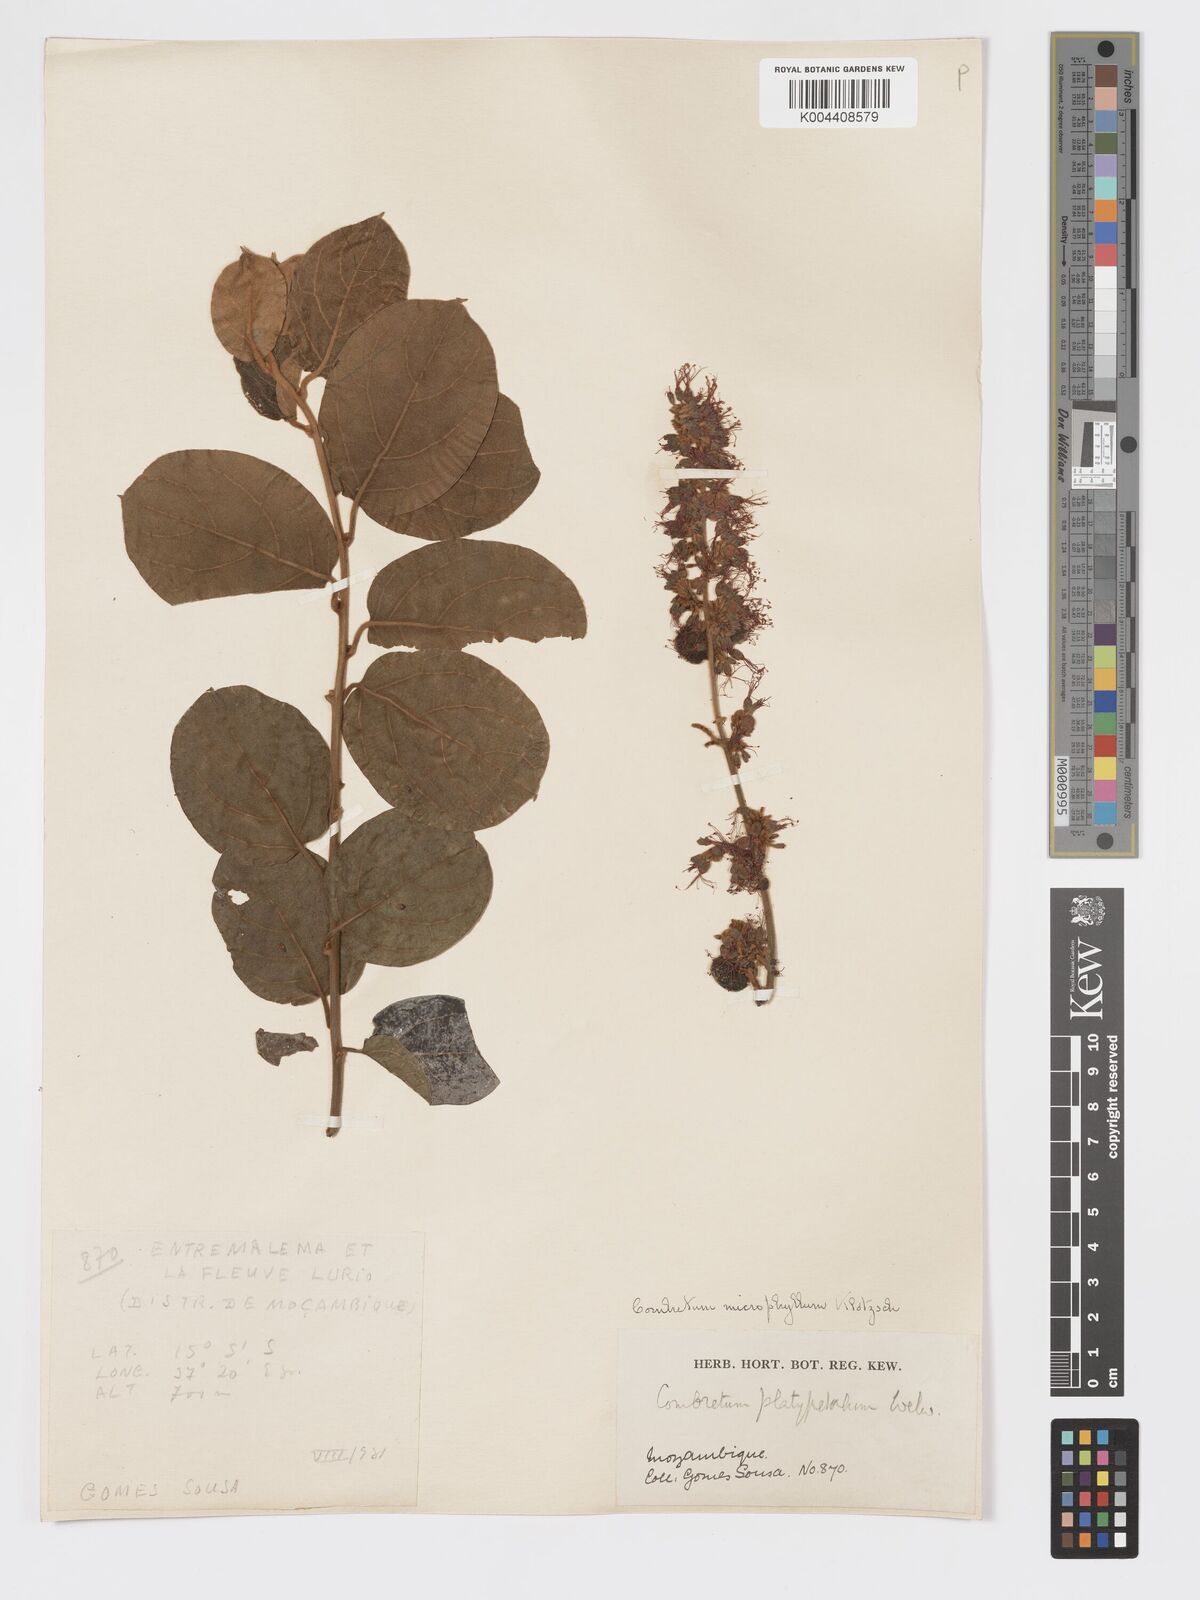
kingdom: Plantae
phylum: Tracheophyta
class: Magnoliopsida
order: Myrtales
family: Combretaceae
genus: Combretum
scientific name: Combretum microphyllum
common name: Burningbush
